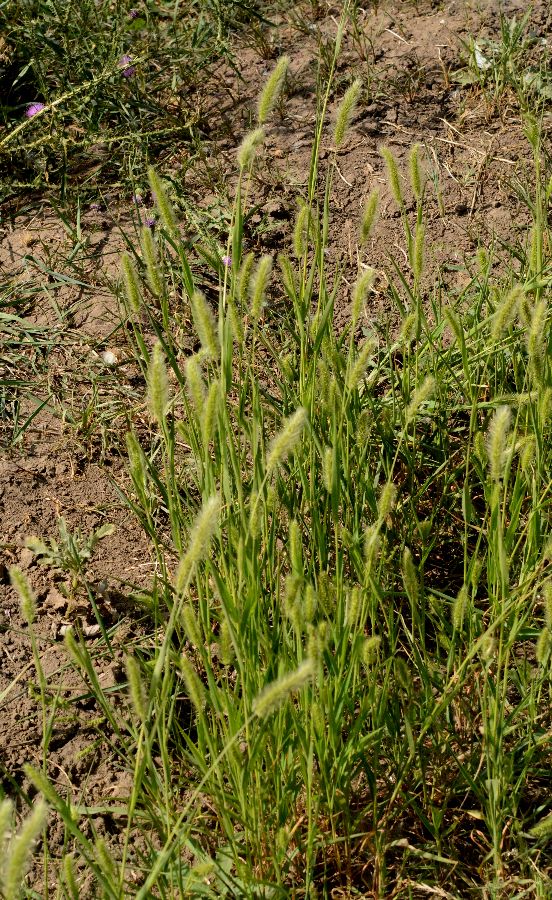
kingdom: Plantae
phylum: Tracheophyta
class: Liliopsida
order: Poales
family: Poaceae
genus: Setaria
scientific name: Setaria viridis
